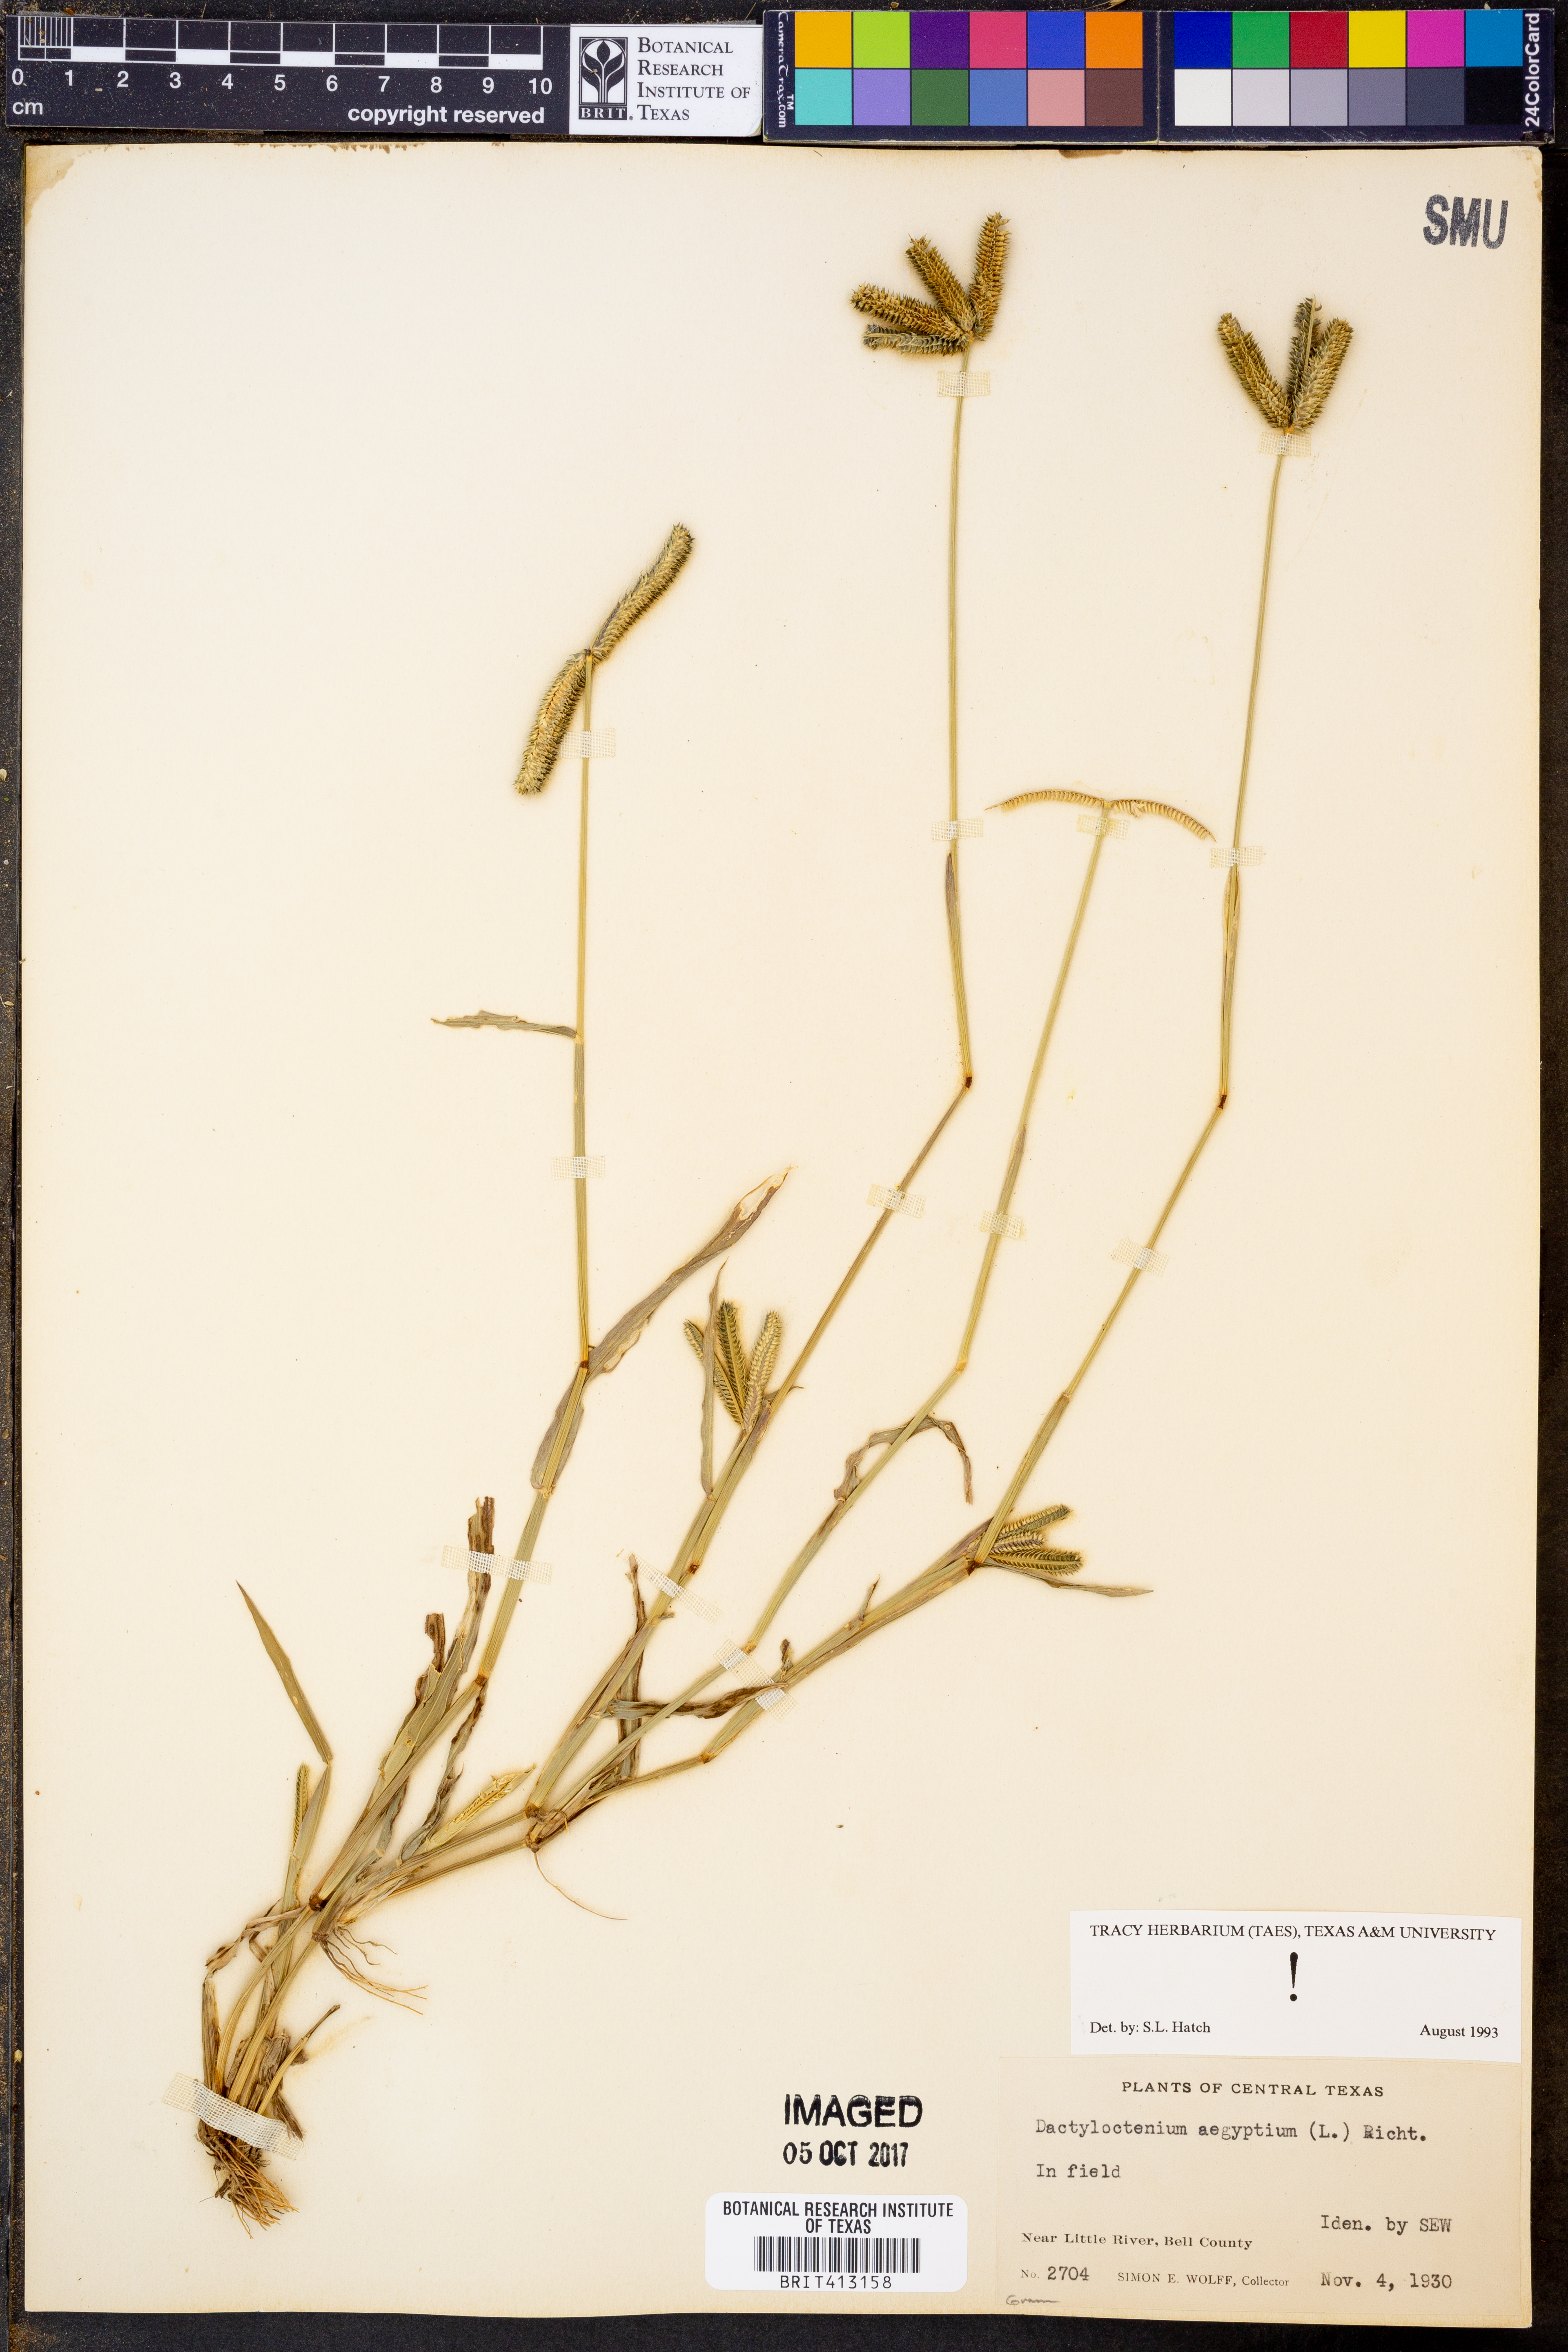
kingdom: Plantae
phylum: Tracheophyta
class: Liliopsida
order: Poales
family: Poaceae
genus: Dactyloctenium
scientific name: Dactyloctenium aegyptium
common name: Egyptian grass
